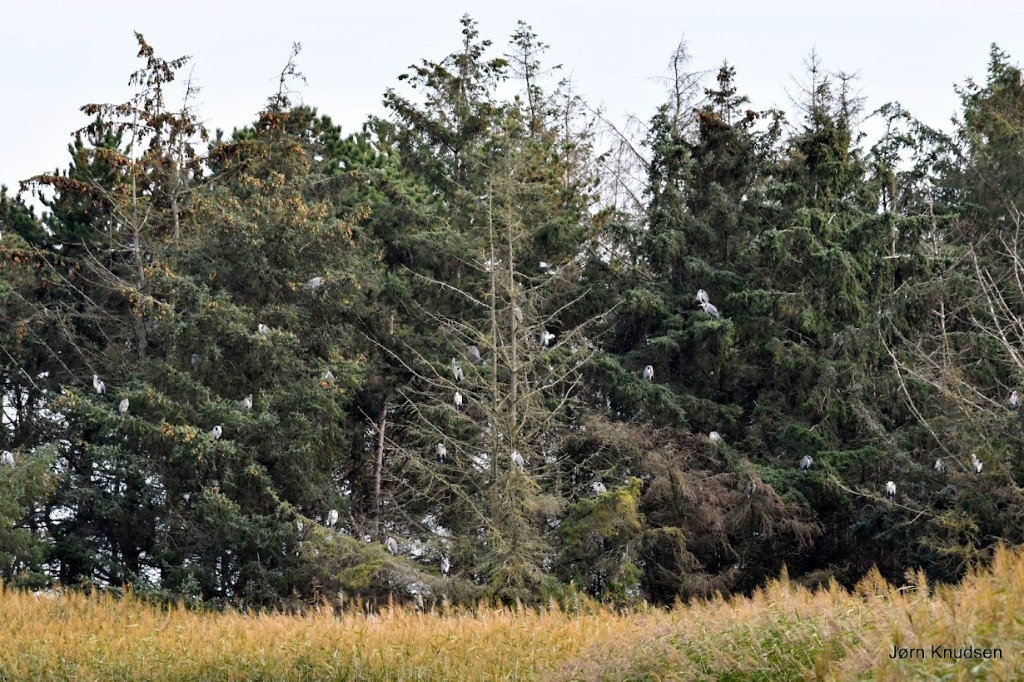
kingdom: Animalia
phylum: Chordata
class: Aves
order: Pelecaniformes
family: Ardeidae
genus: Ardea
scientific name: Ardea cinerea
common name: Fiskehejre
